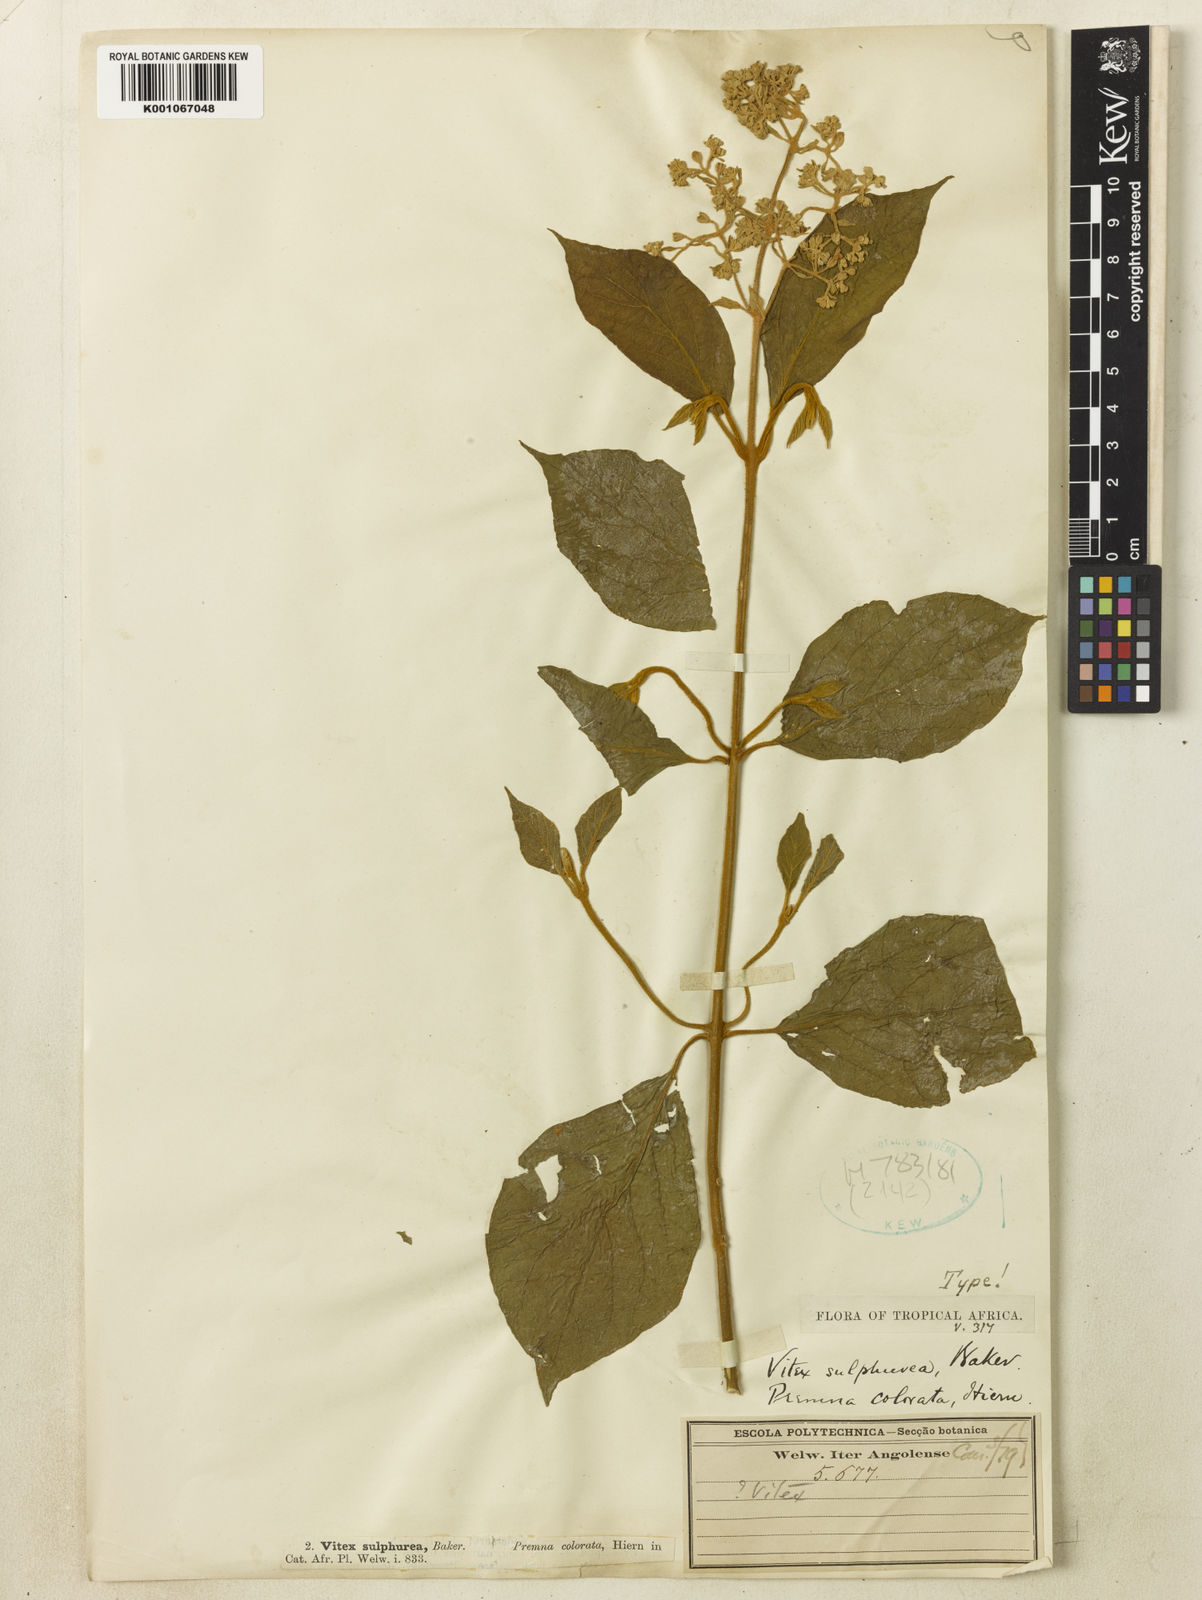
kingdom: Plantae
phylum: Tracheophyta
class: Magnoliopsida
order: Lamiales
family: Lamiaceae
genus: Premna
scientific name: Premna
